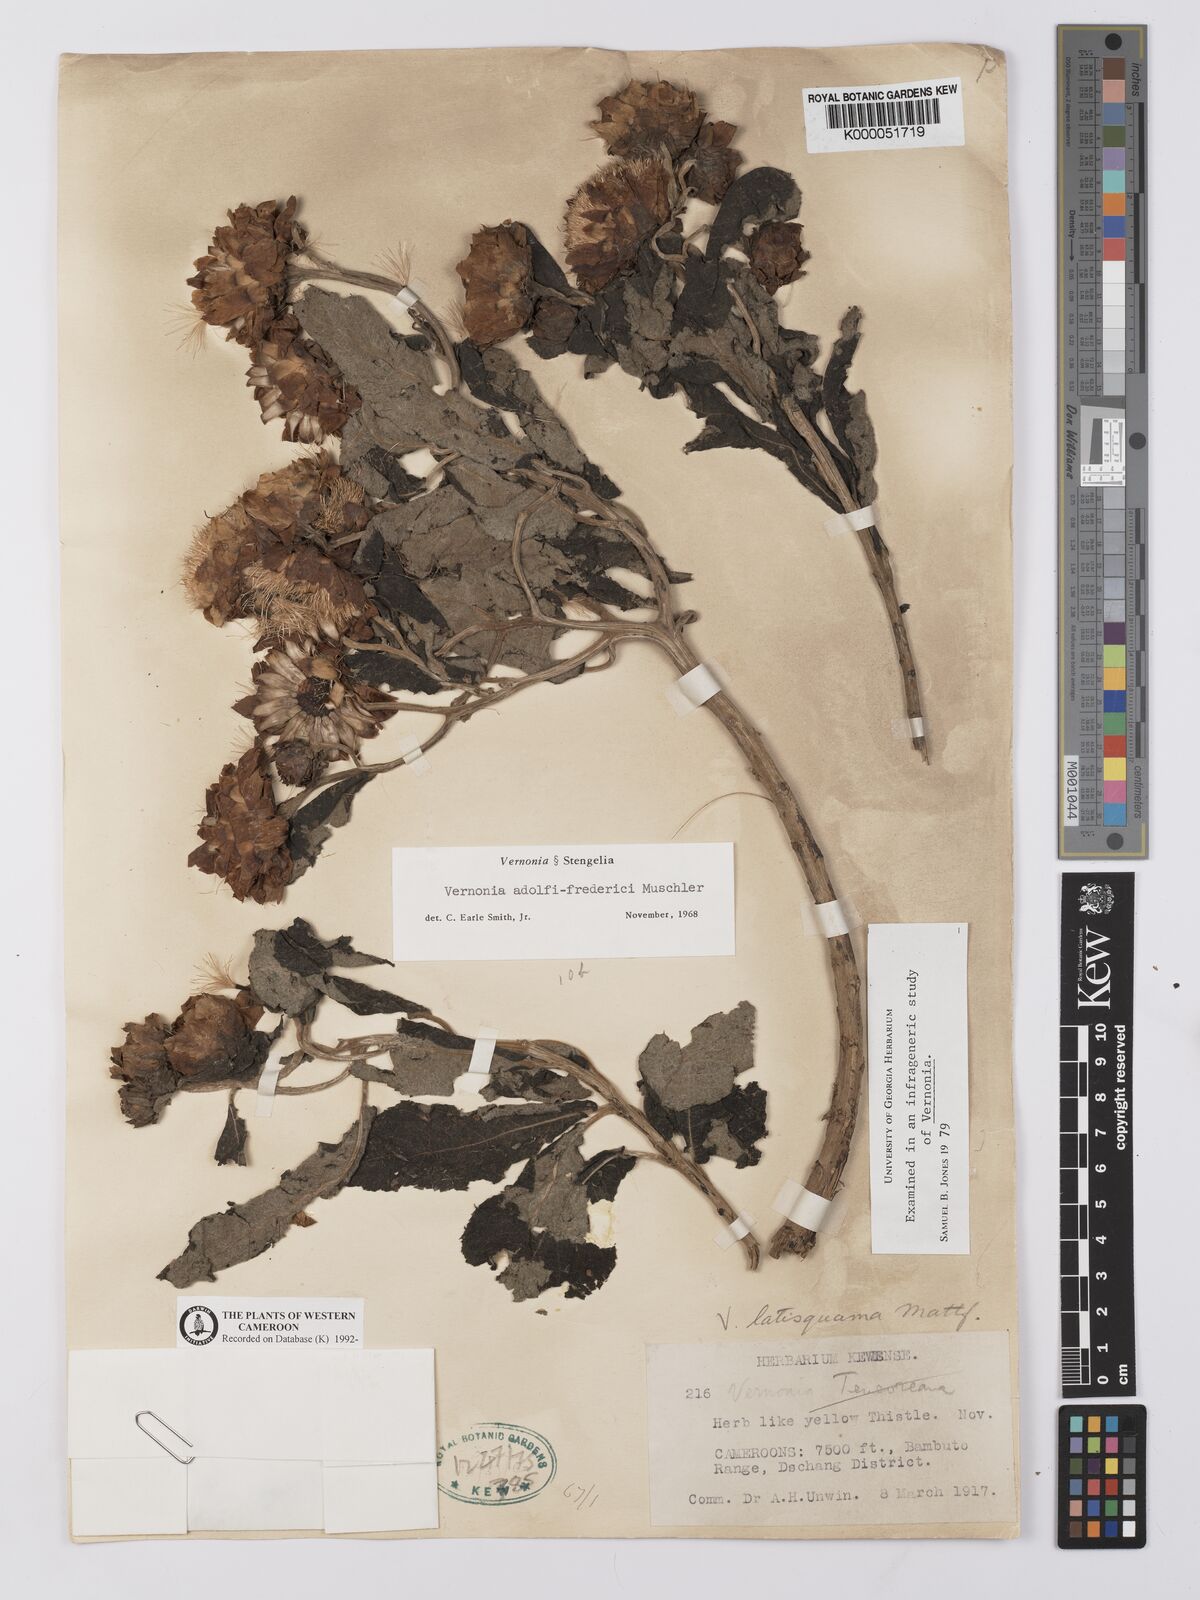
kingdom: Plantae
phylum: Tracheophyta
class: Magnoliopsida
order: Asterales
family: Asteraceae
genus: Baccharoides
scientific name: Baccharoides tenoreana
